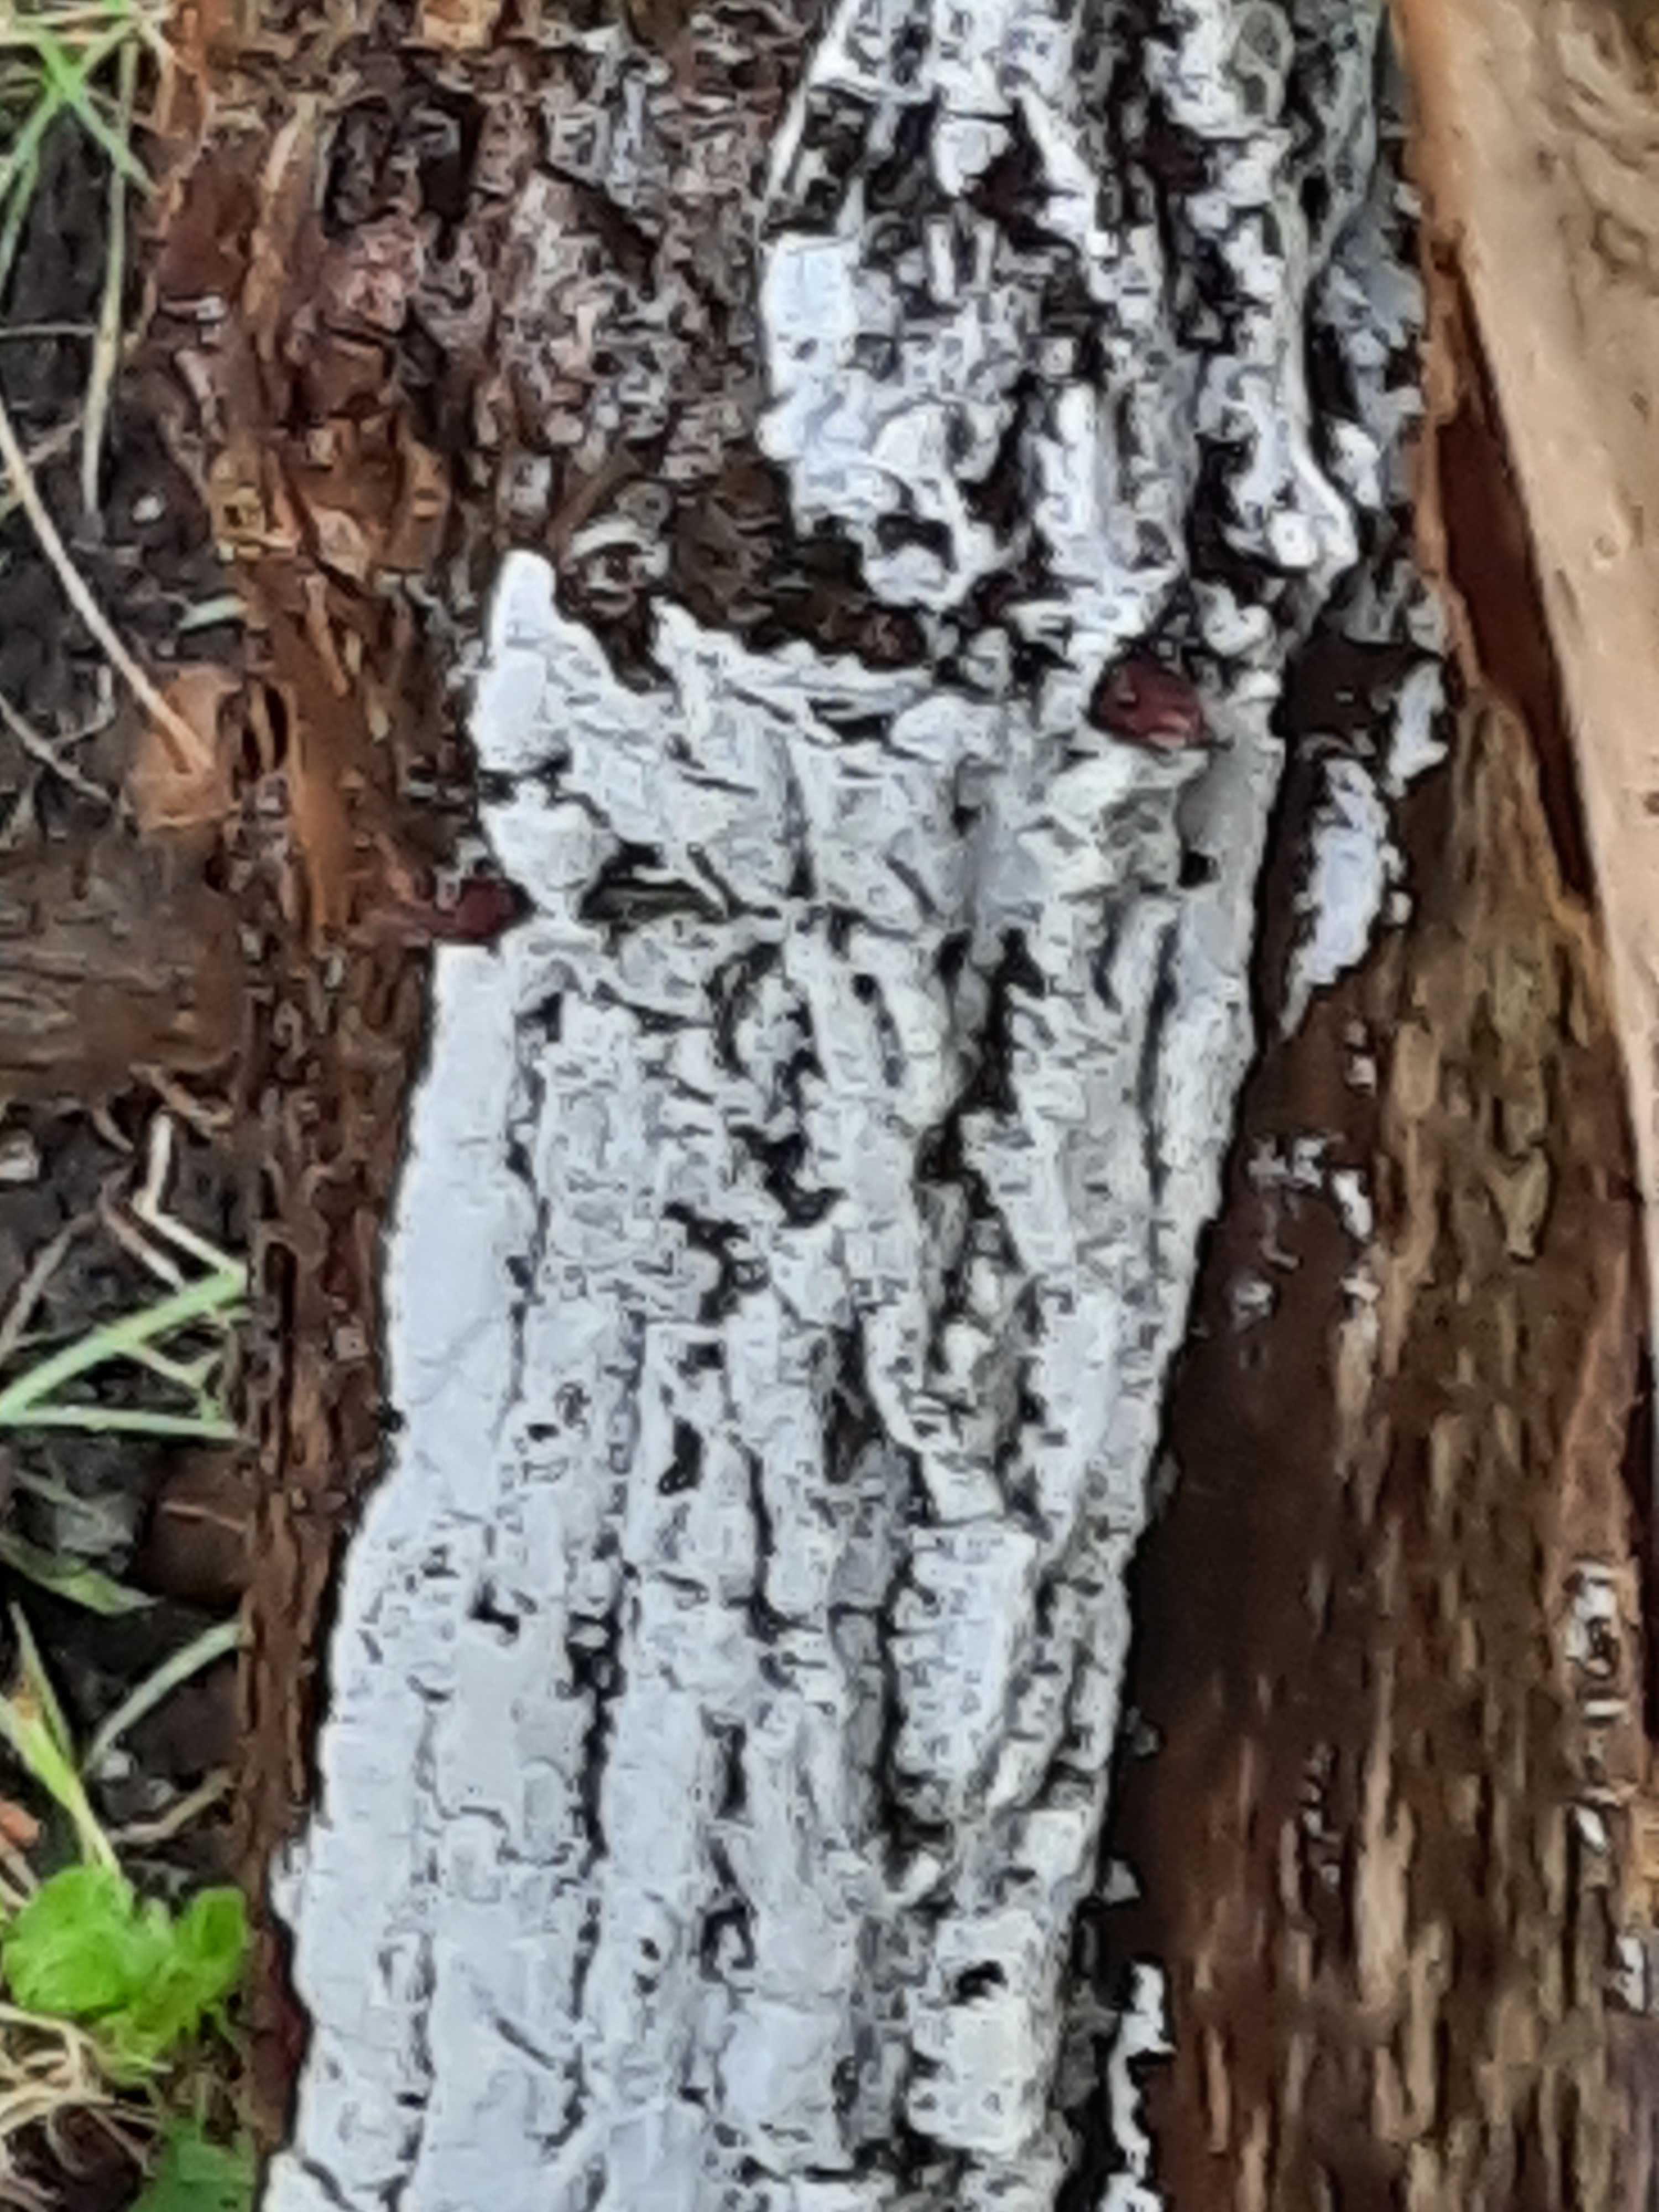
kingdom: Fungi
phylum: Basidiomycota
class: Agaricomycetes
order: Corticiales
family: Corticiaceae
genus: Lyomyces
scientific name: Lyomyces sambuci
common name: almindelig hyldehinde
